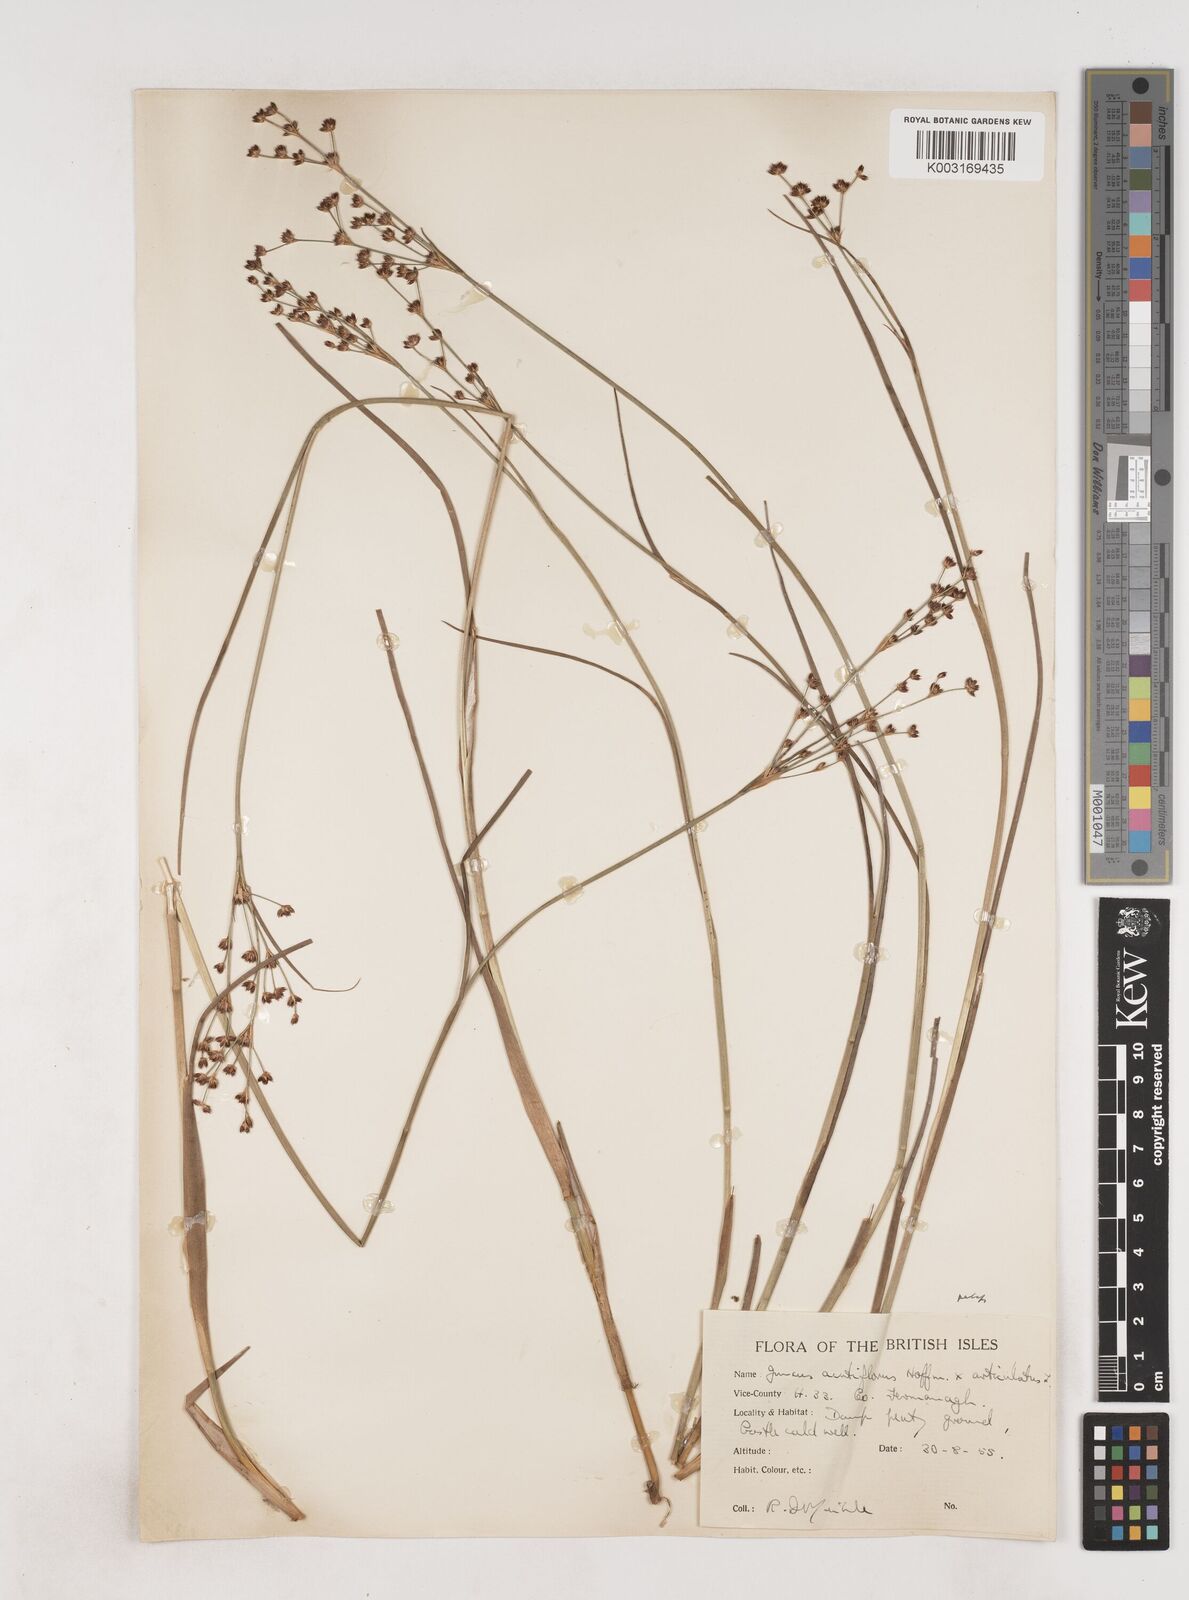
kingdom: Plantae
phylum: Tracheophyta
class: Liliopsida
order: Poales
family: Juncaceae
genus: Juncus
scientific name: Juncus acutiflorus
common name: Sharp-flowered rush
